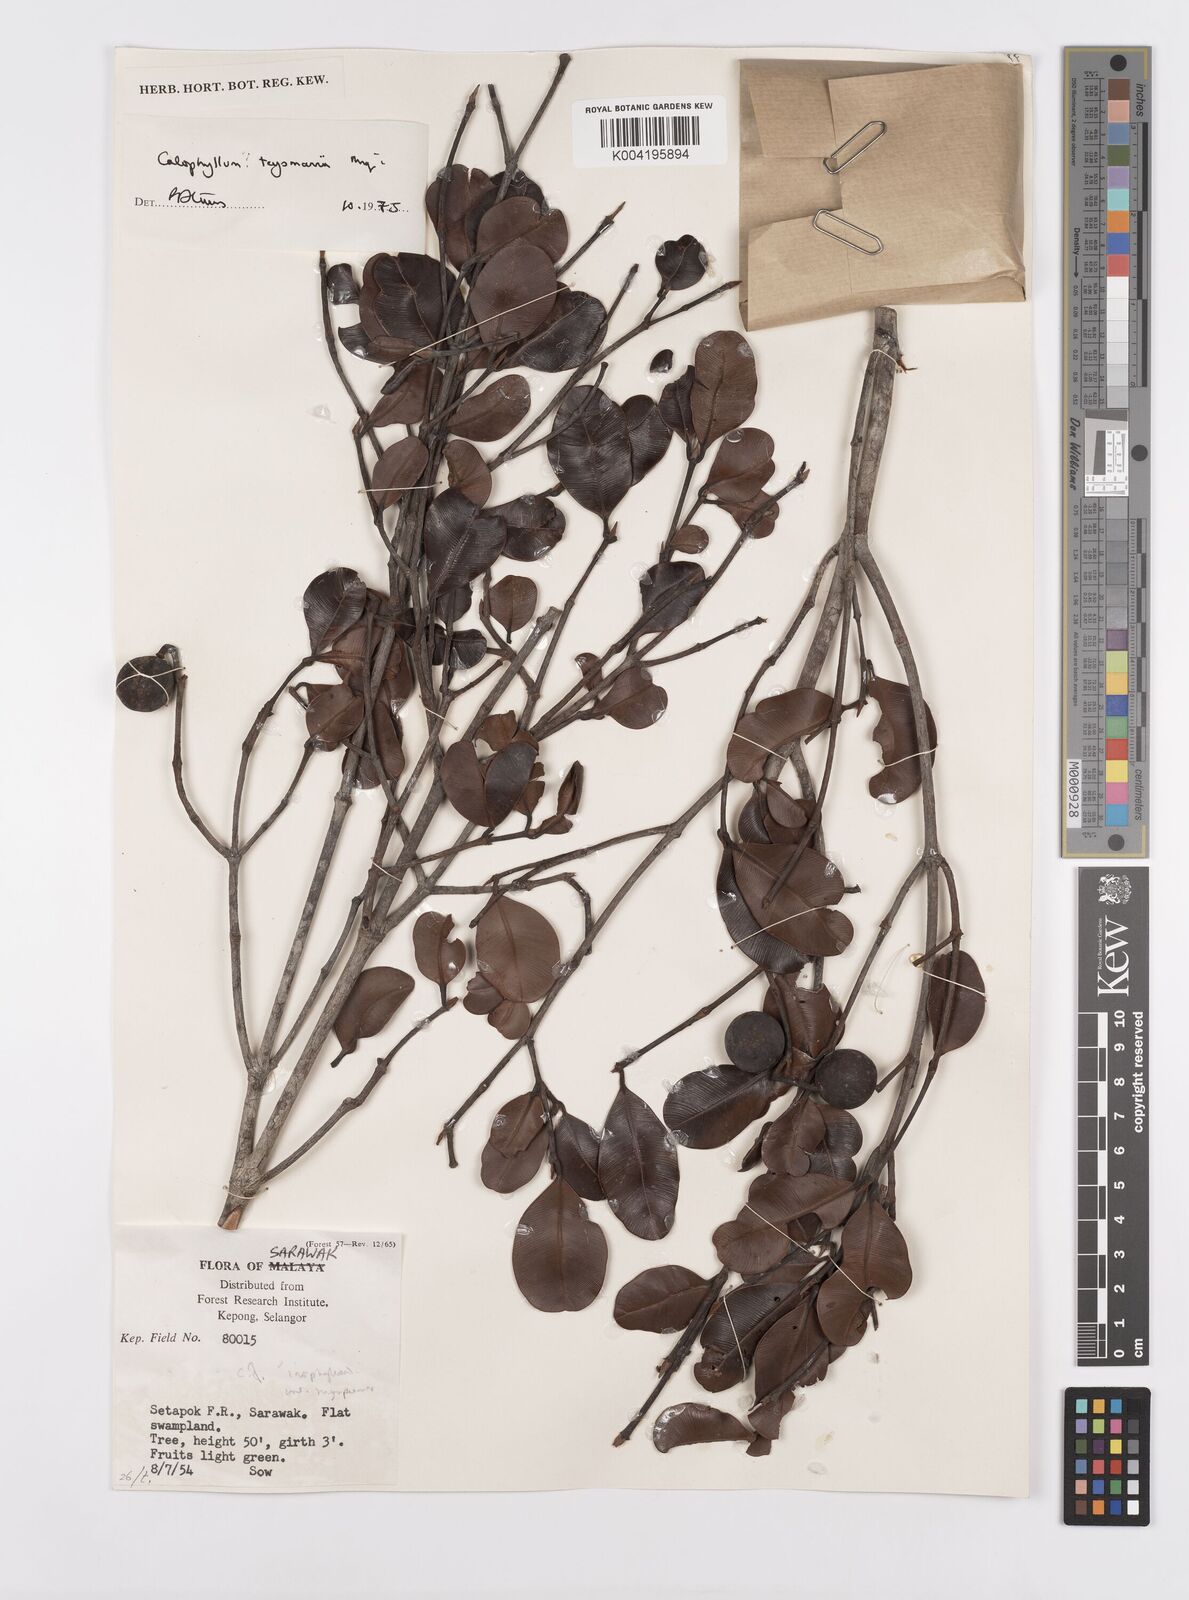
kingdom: Plantae
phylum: Tracheophyta
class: Magnoliopsida
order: Malpighiales
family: Calophyllaceae
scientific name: Calophyllaceae
